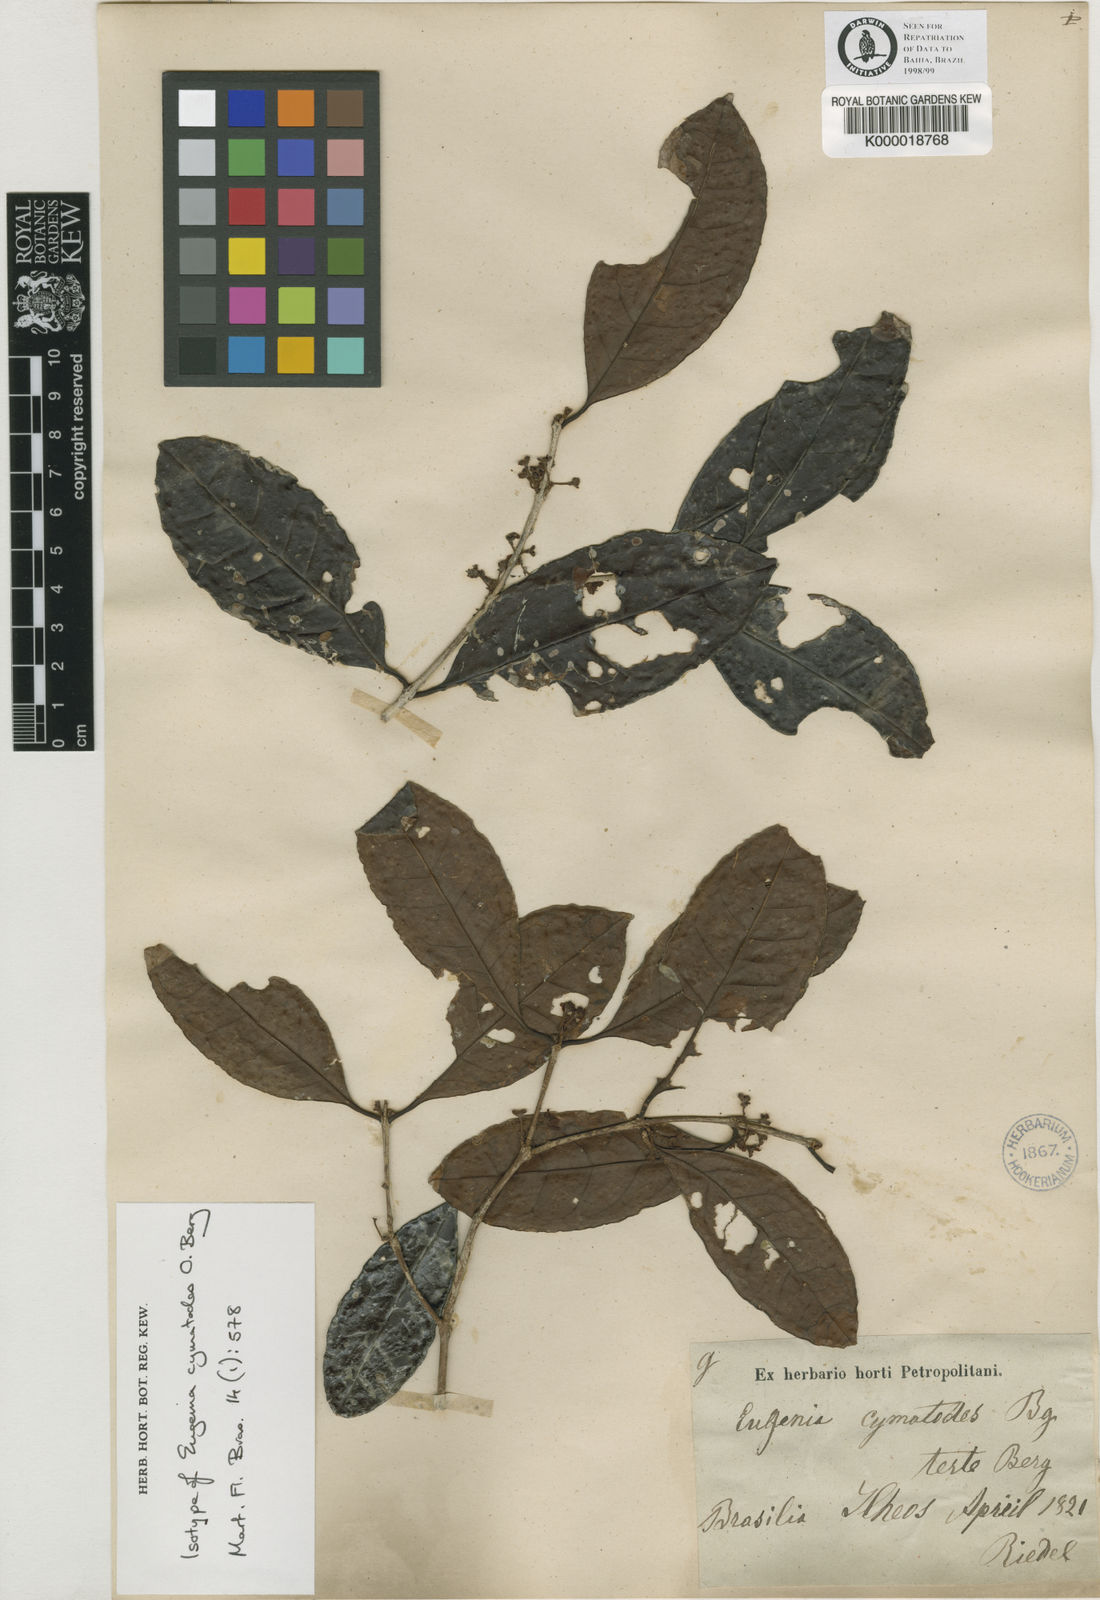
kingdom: Plantae
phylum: Tracheophyta
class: Magnoliopsida
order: Myrtales
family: Myrtaceae
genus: Eugenia
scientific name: Eugenia cymatodes
